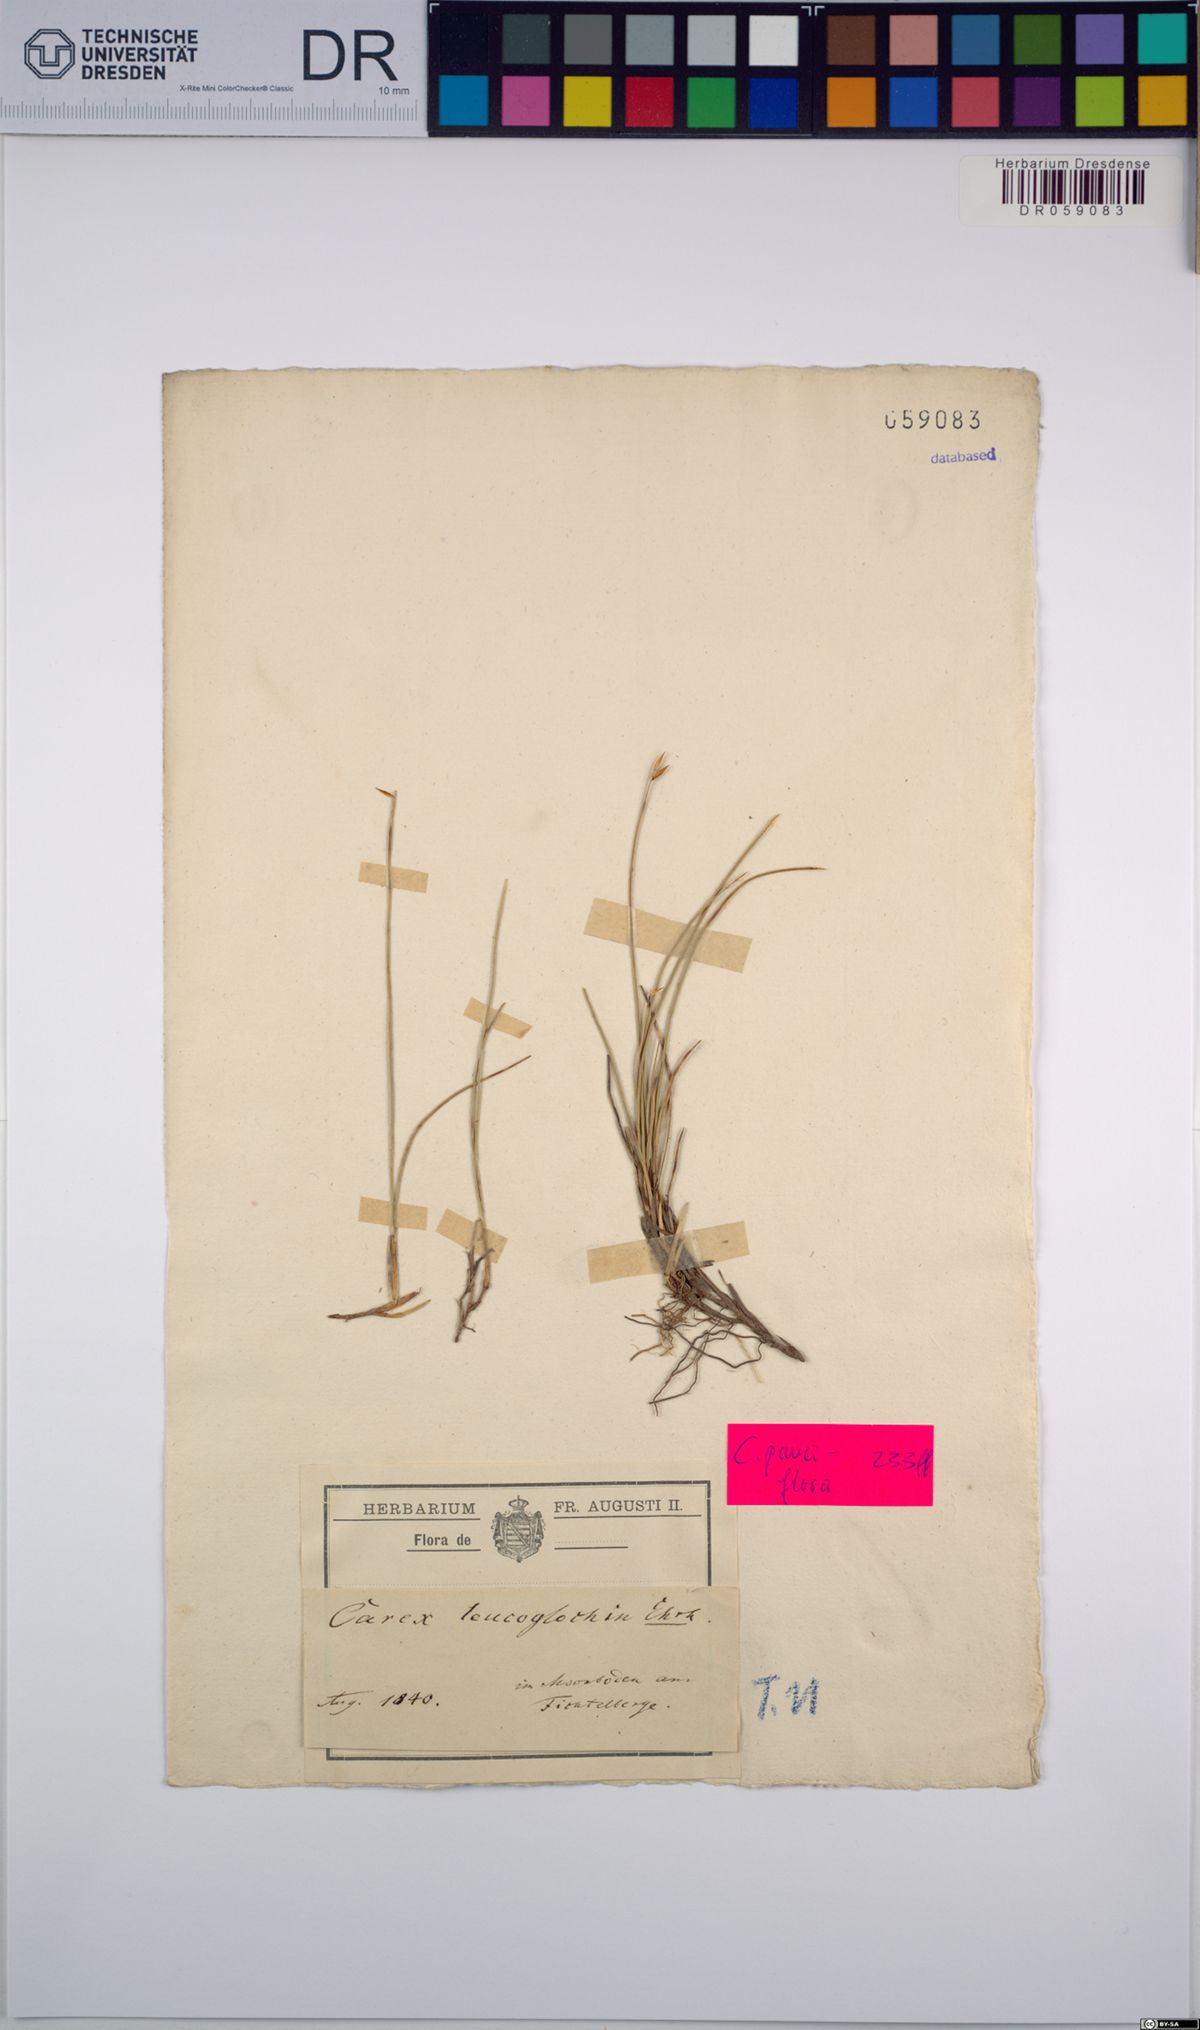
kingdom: Plantae
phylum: Tracheophyta
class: Liliopsida
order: Poales
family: Cyperaceae
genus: Carex
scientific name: Carex pauciflora
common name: Few-flowered sedge
